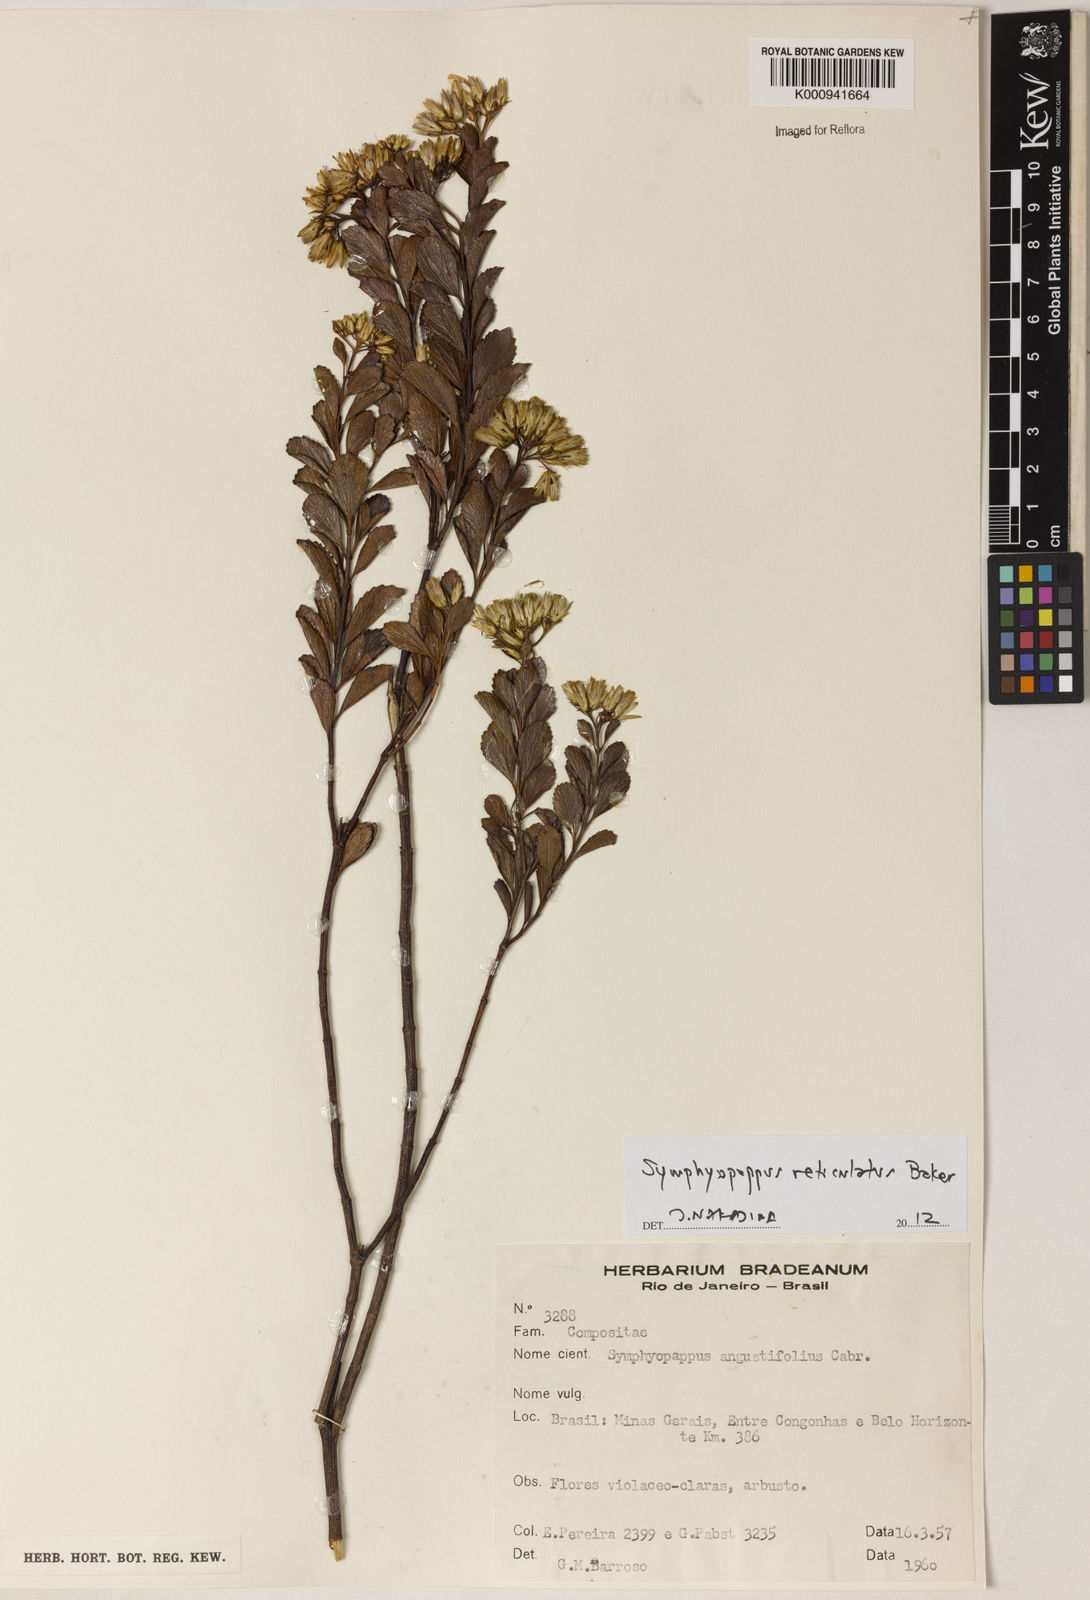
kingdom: Plantae
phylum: Tracheophyta
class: Magnoliopsida
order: Asterales
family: Asteraceae
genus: Symphyopappus
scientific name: Symphyopappus
